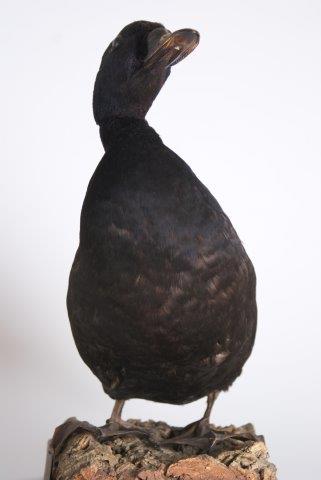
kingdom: Animalia
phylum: Chordata
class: Aves
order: Anseriformes
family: Anatidae
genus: Melanitta
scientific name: Melanitta nigra
